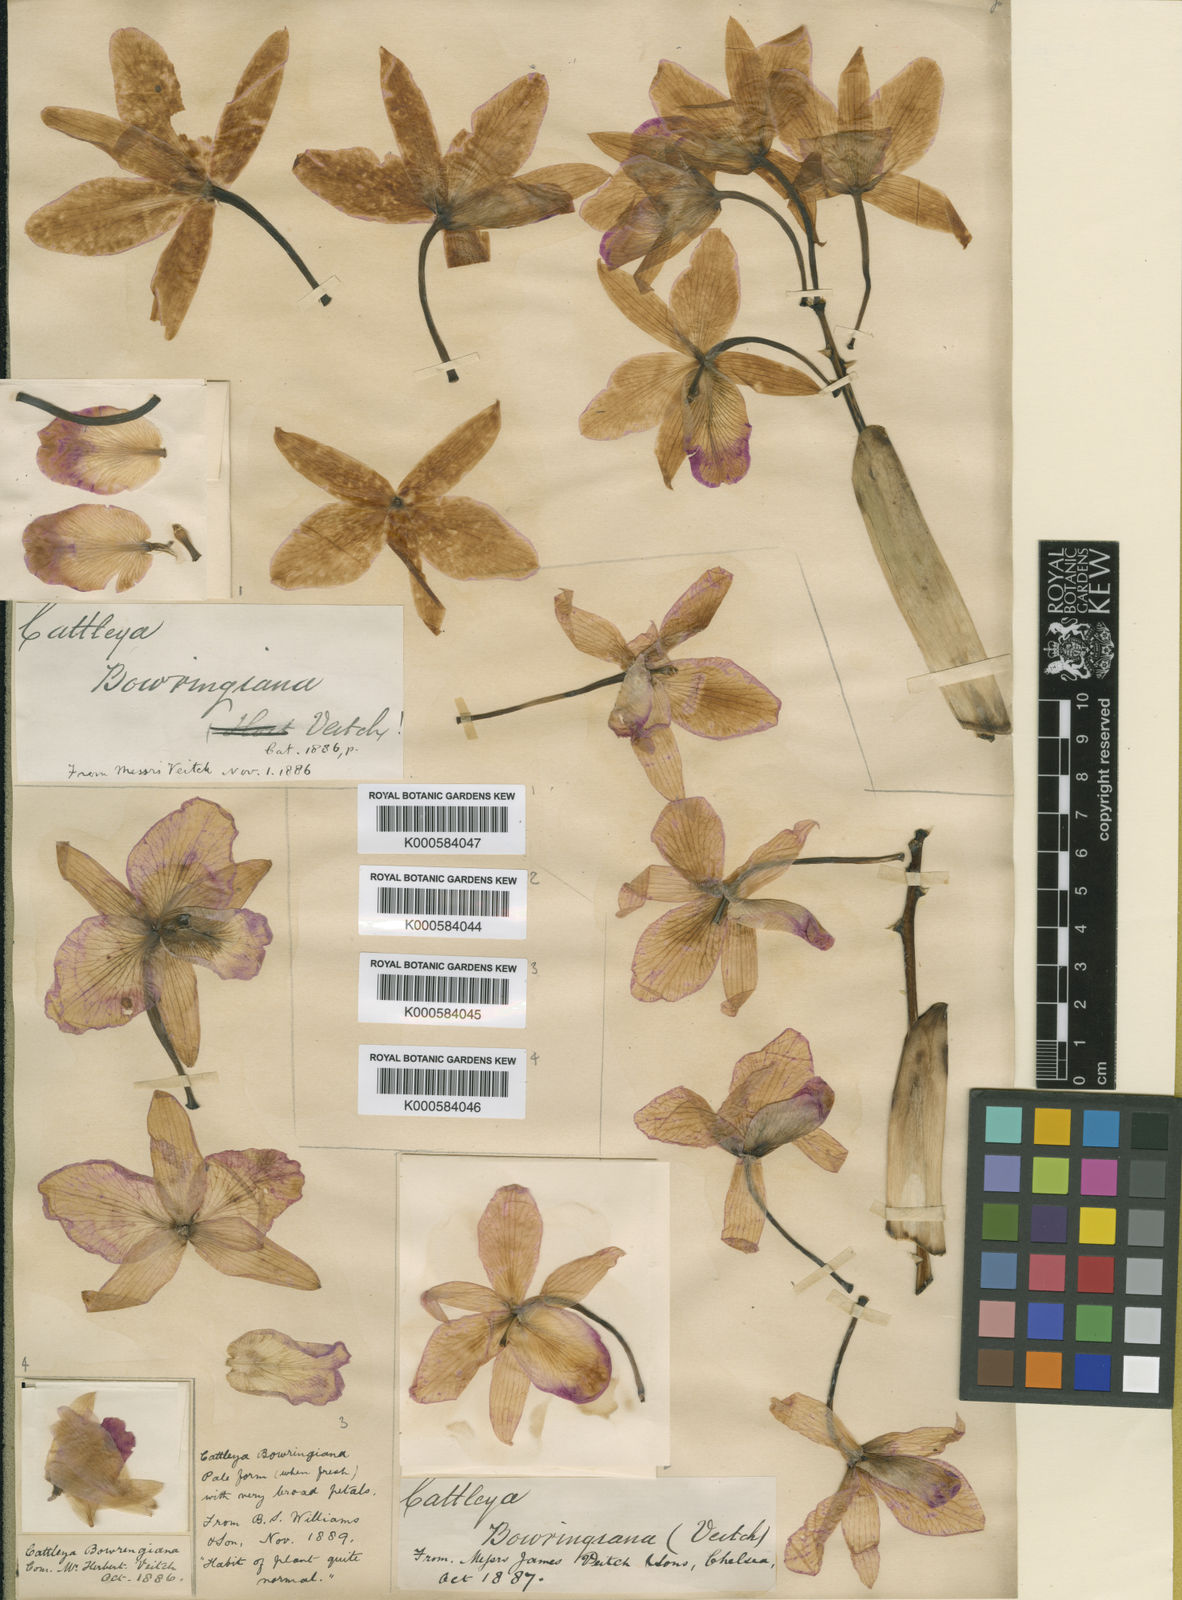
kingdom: Plantae
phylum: Tracheophyta
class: Liliopsida
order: Asparagales
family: Orchidaceae
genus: Cattleya
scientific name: Cattleya
